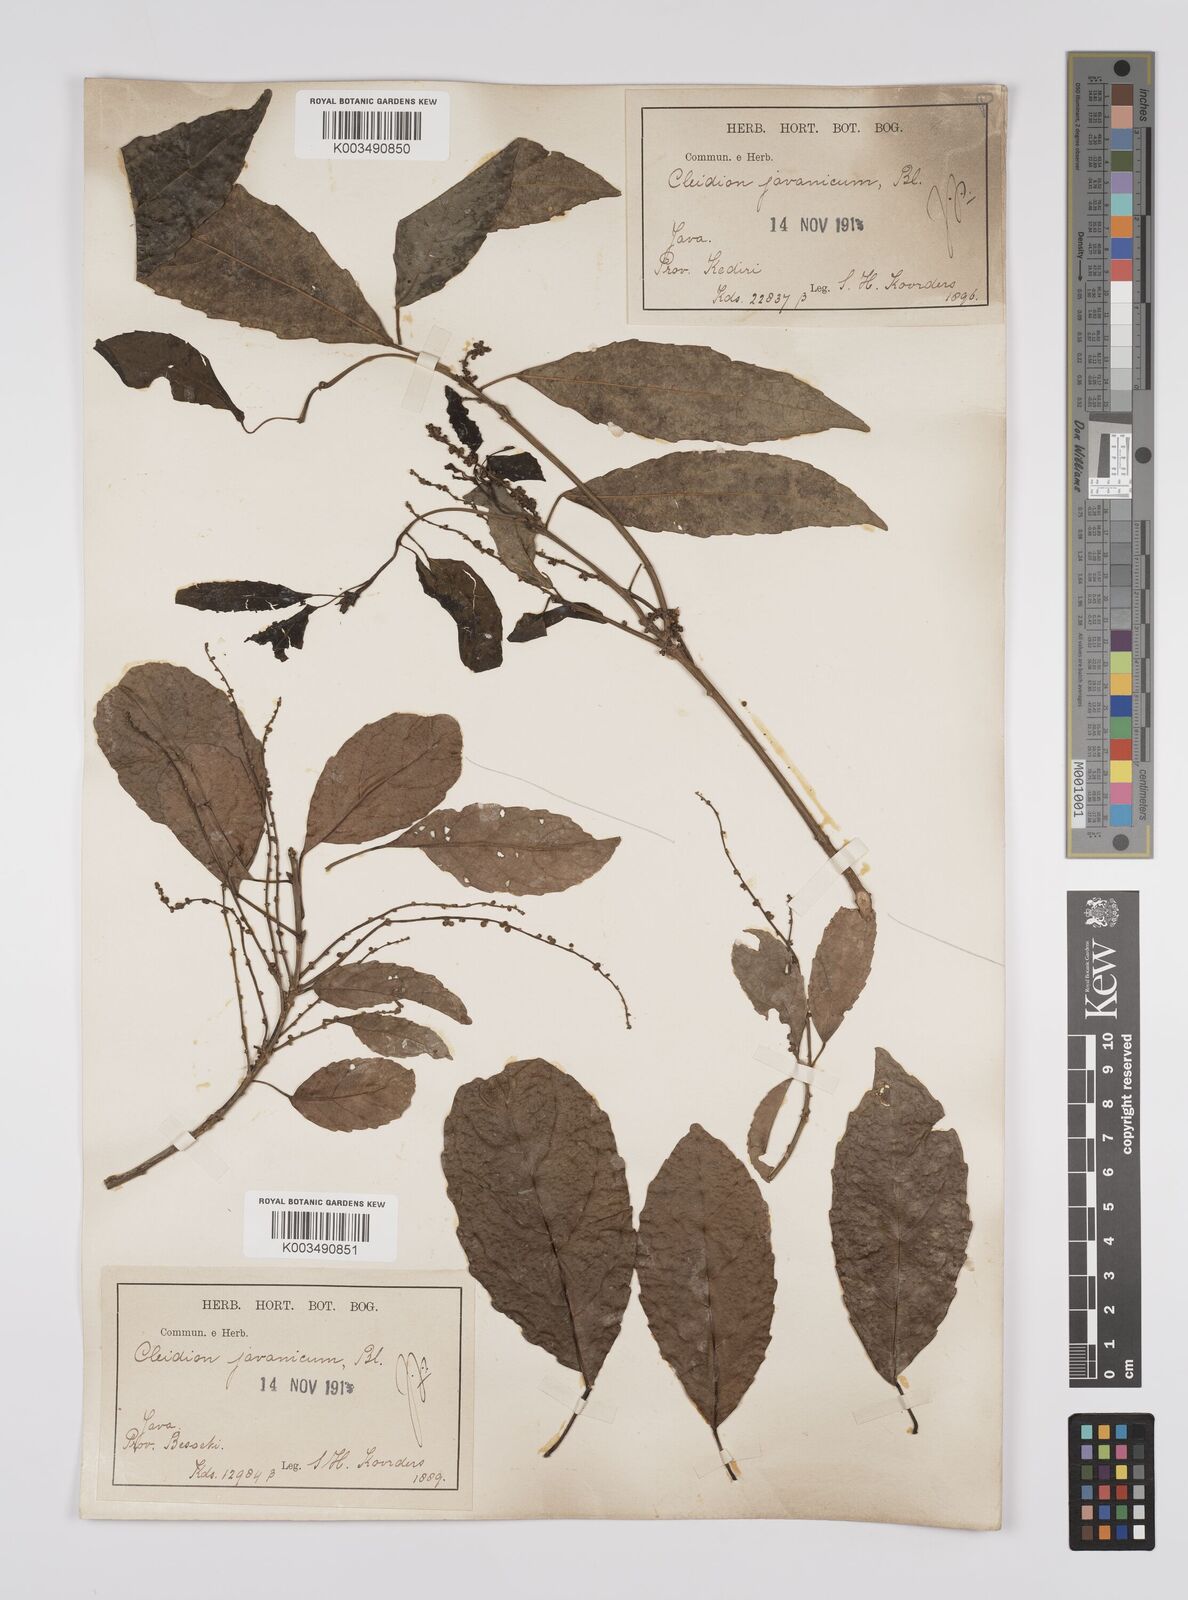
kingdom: Plantae
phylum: Tracheophyta
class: Magnoliopsida
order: Malpighiales
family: Euphorbiaceae
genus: Acalypha
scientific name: Acalypha spiciflora
